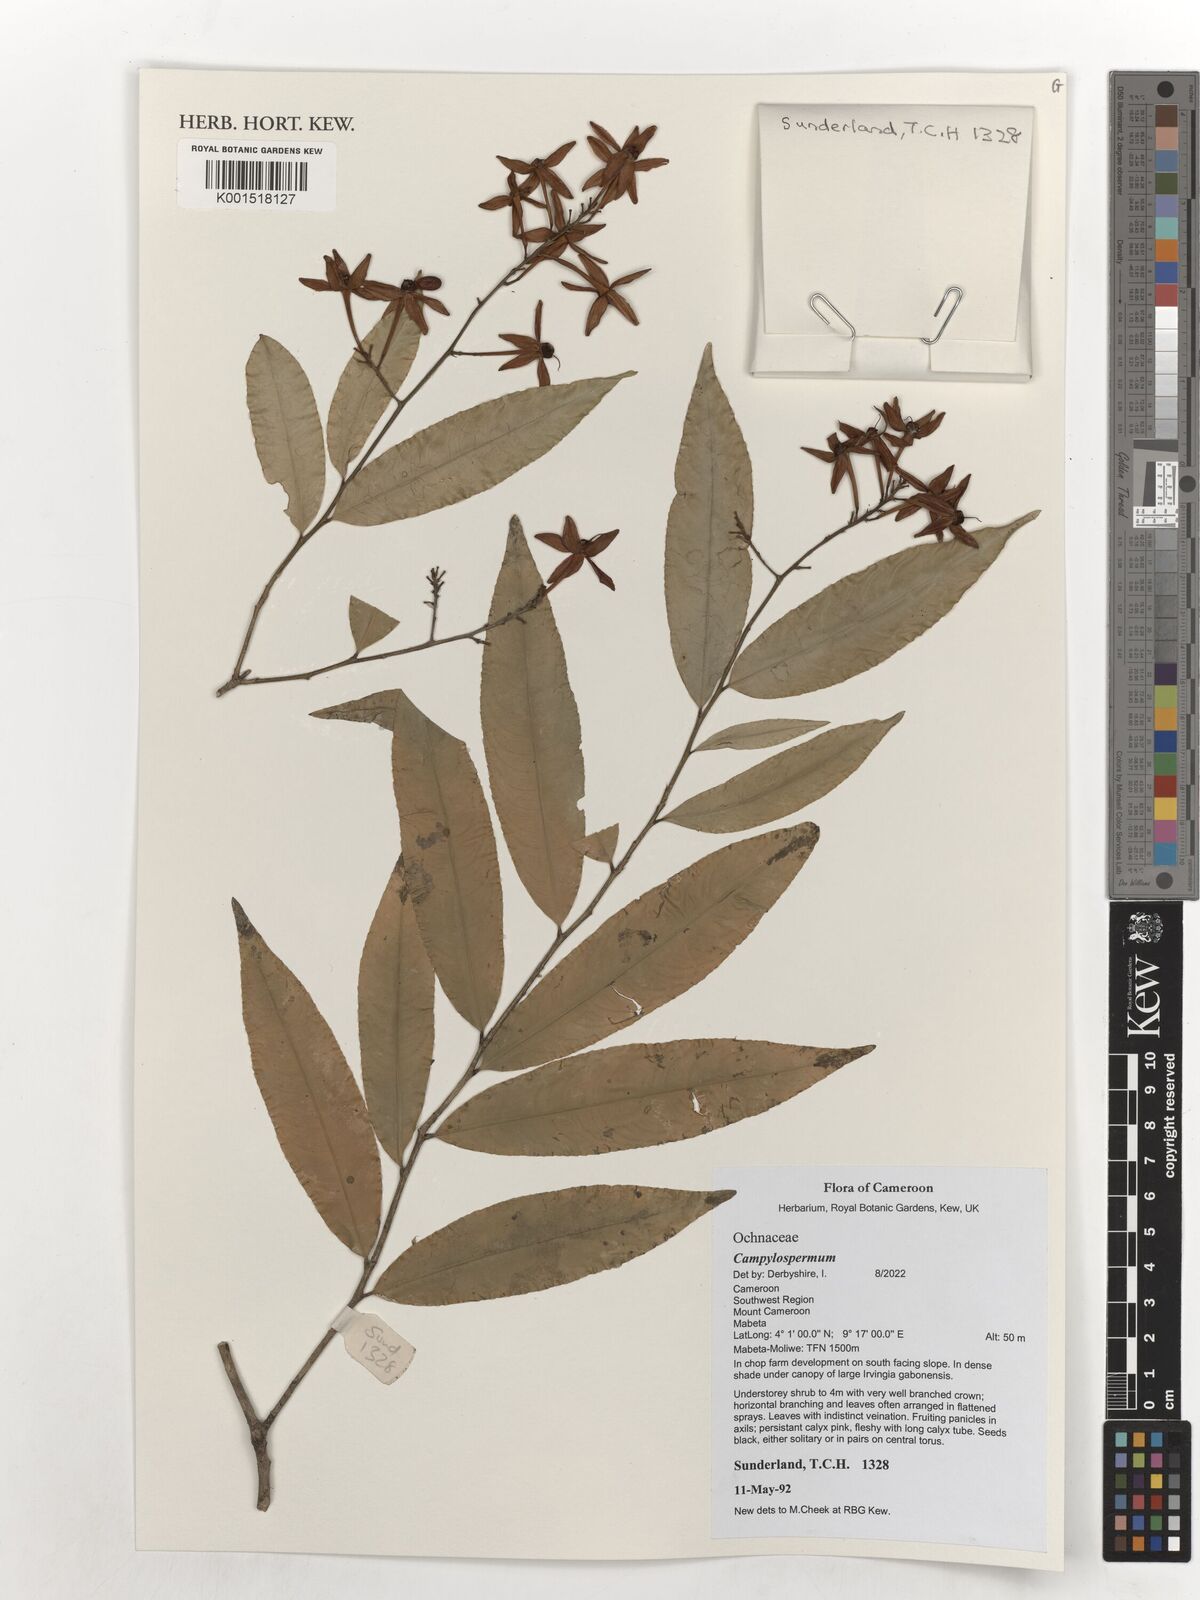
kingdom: Plantae
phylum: Tracheophyta
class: Magnoliopsida
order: Malpighiales
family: Ochnaceae
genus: Campylospermum
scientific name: Campylospermum reticulatum
